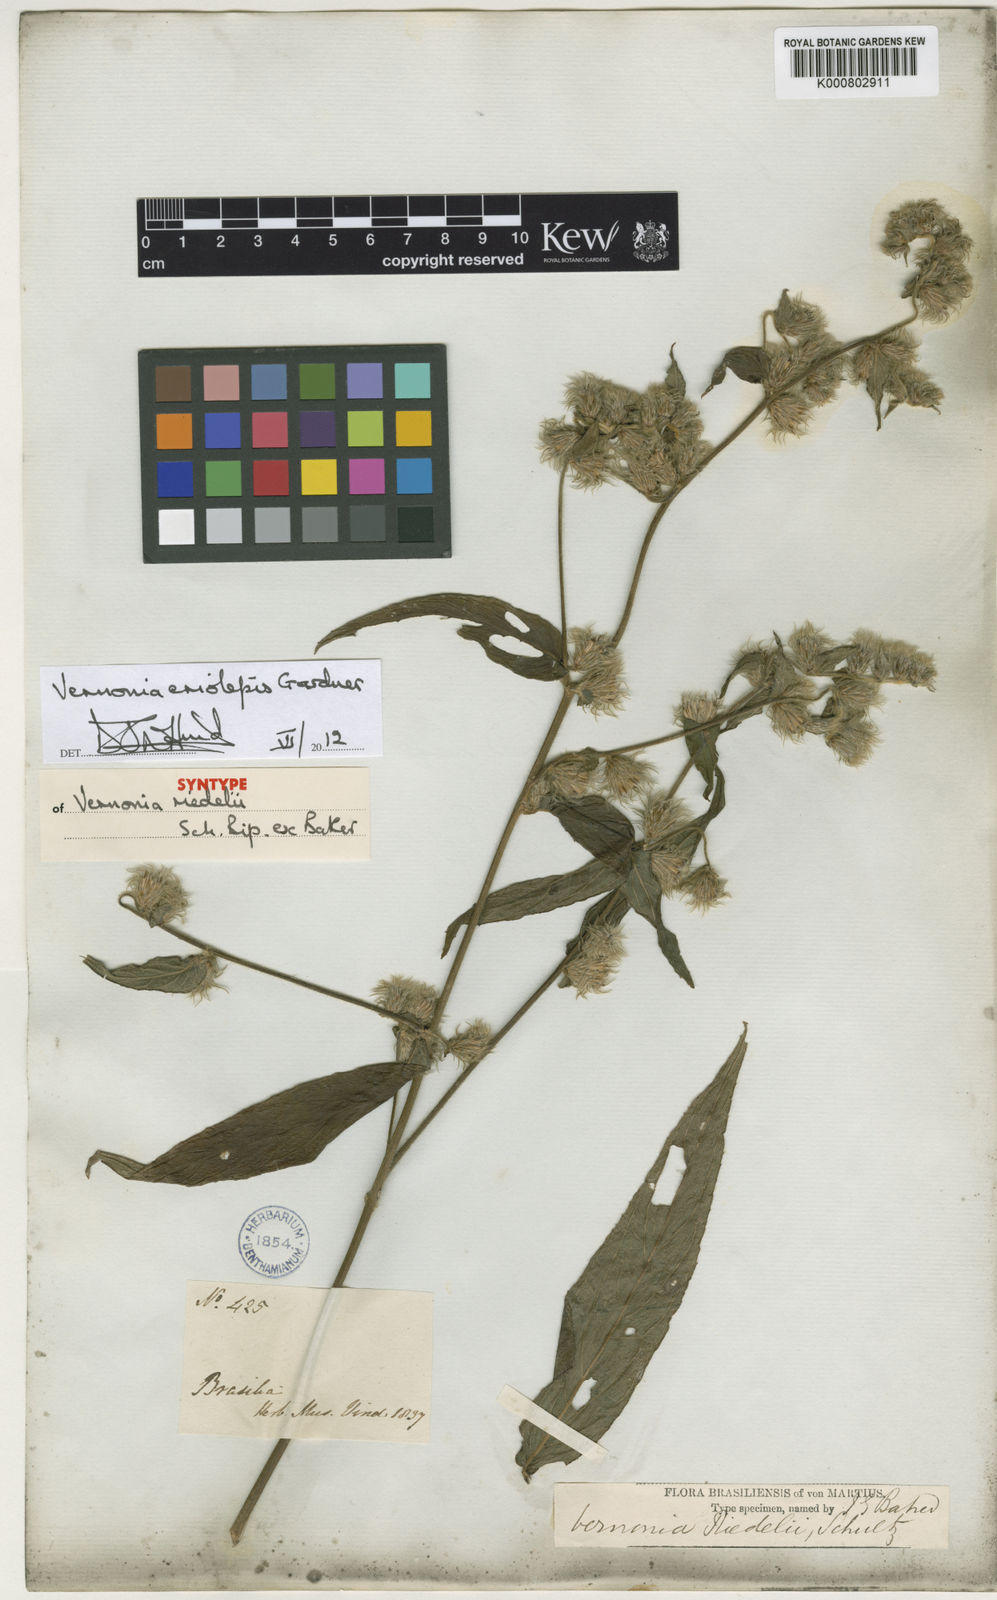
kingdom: Plantae
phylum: Tracheophyta
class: Magnoliopsida
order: Asterales
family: Asteraceae
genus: Lepidaploa
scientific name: Lepidaploa eriolepis
